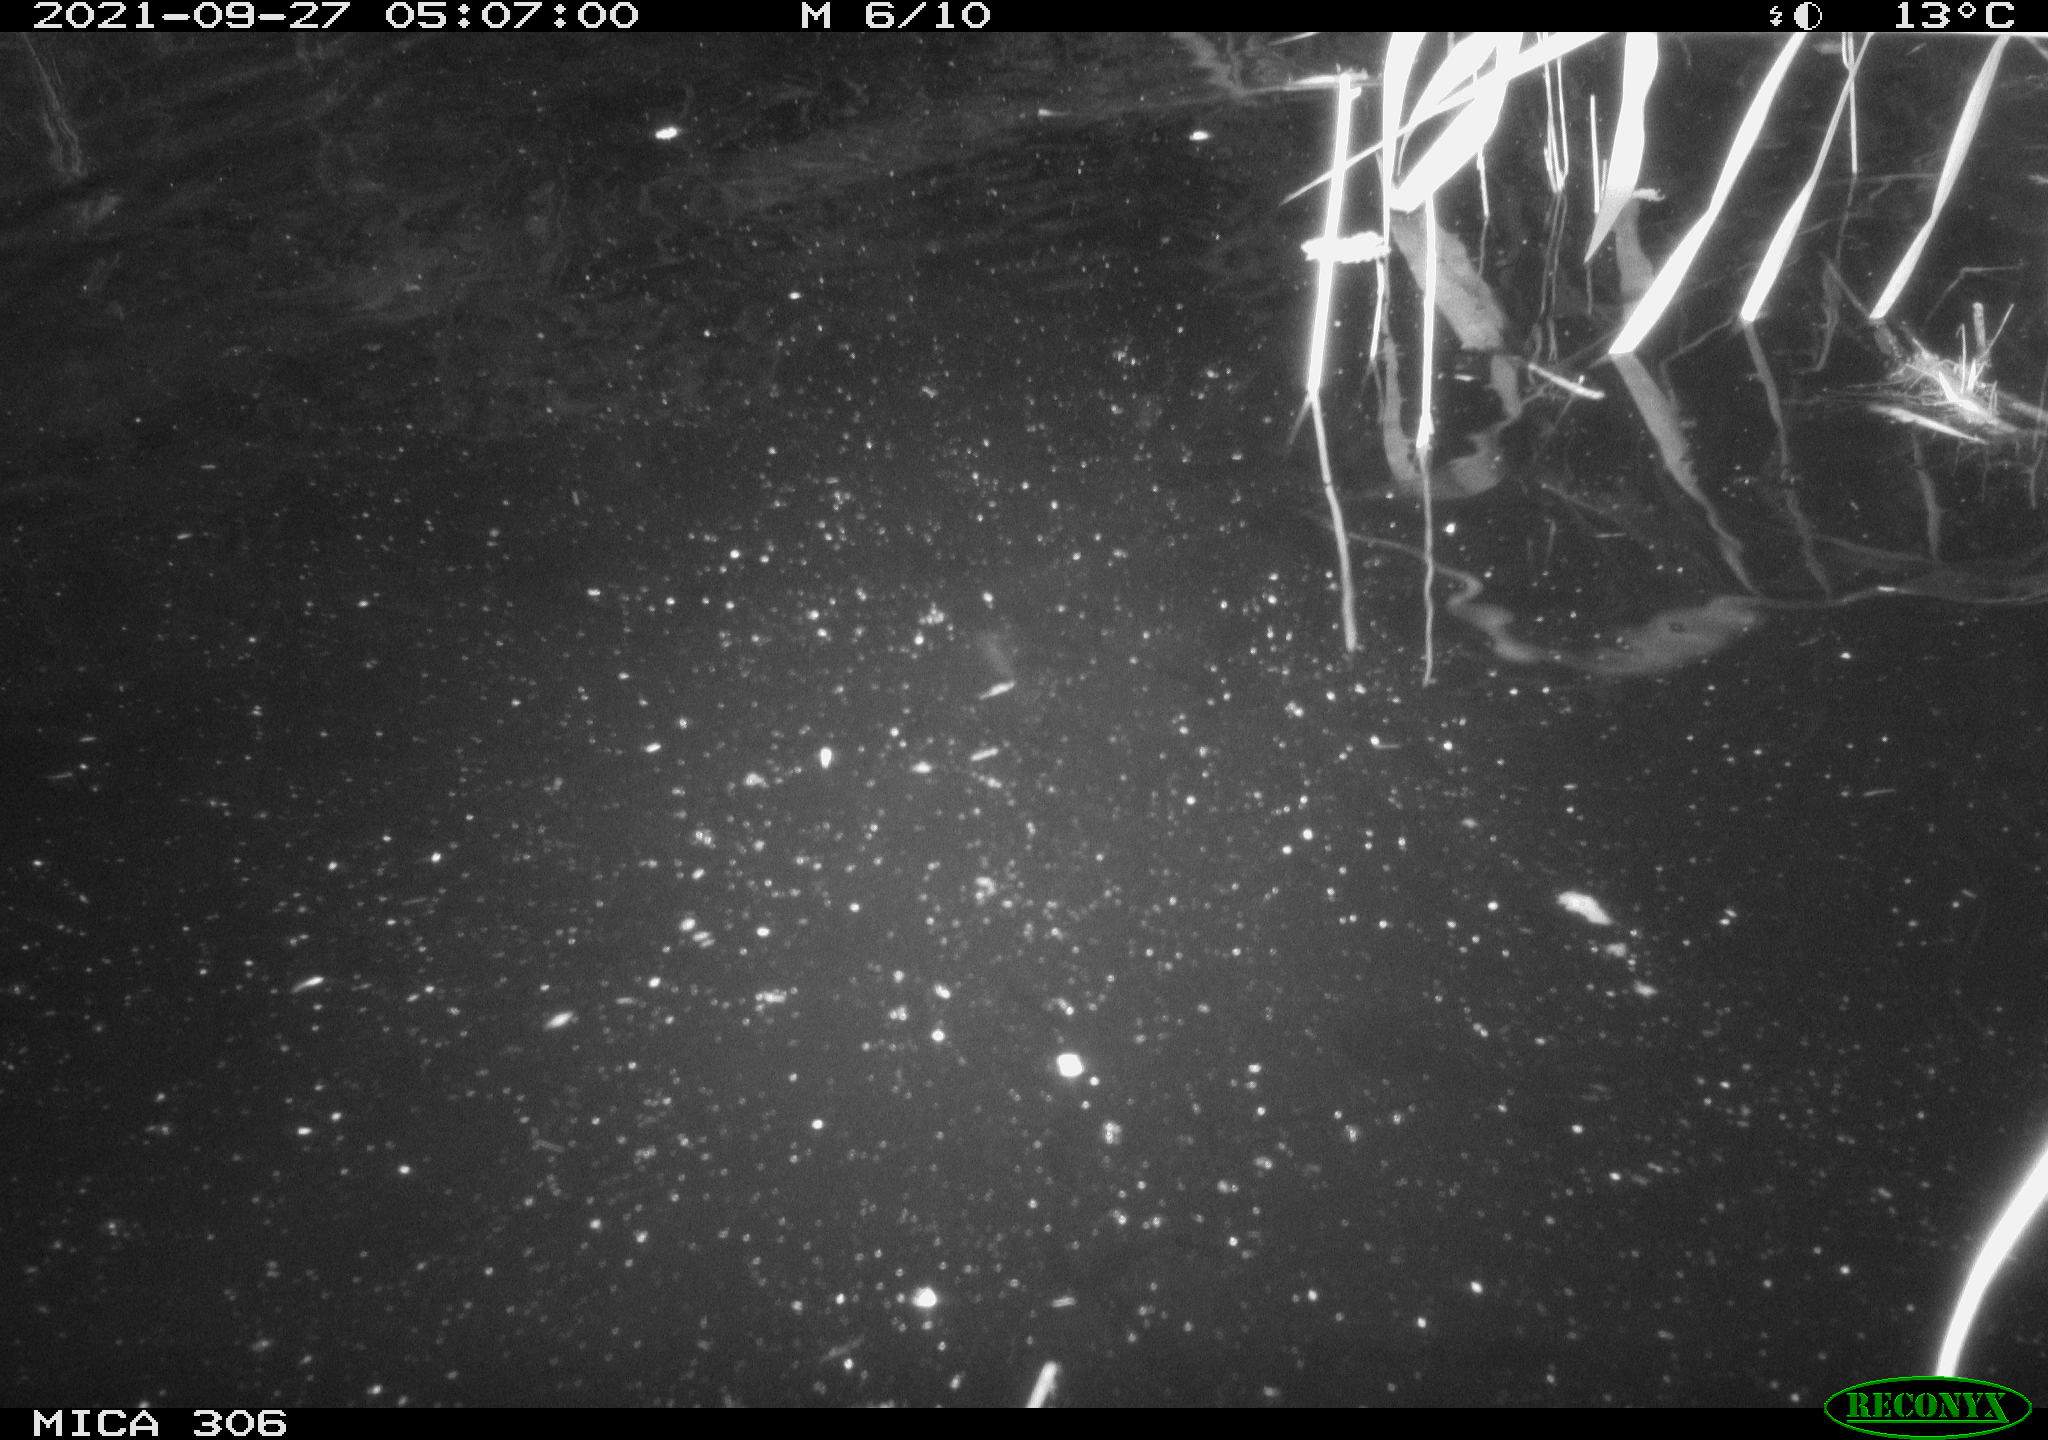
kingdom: Animalia
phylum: Chordata
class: Mammalia
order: Rodentia
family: Cricetidae
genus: Ondatra
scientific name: Ondatra zibethicus
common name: Muskrat
